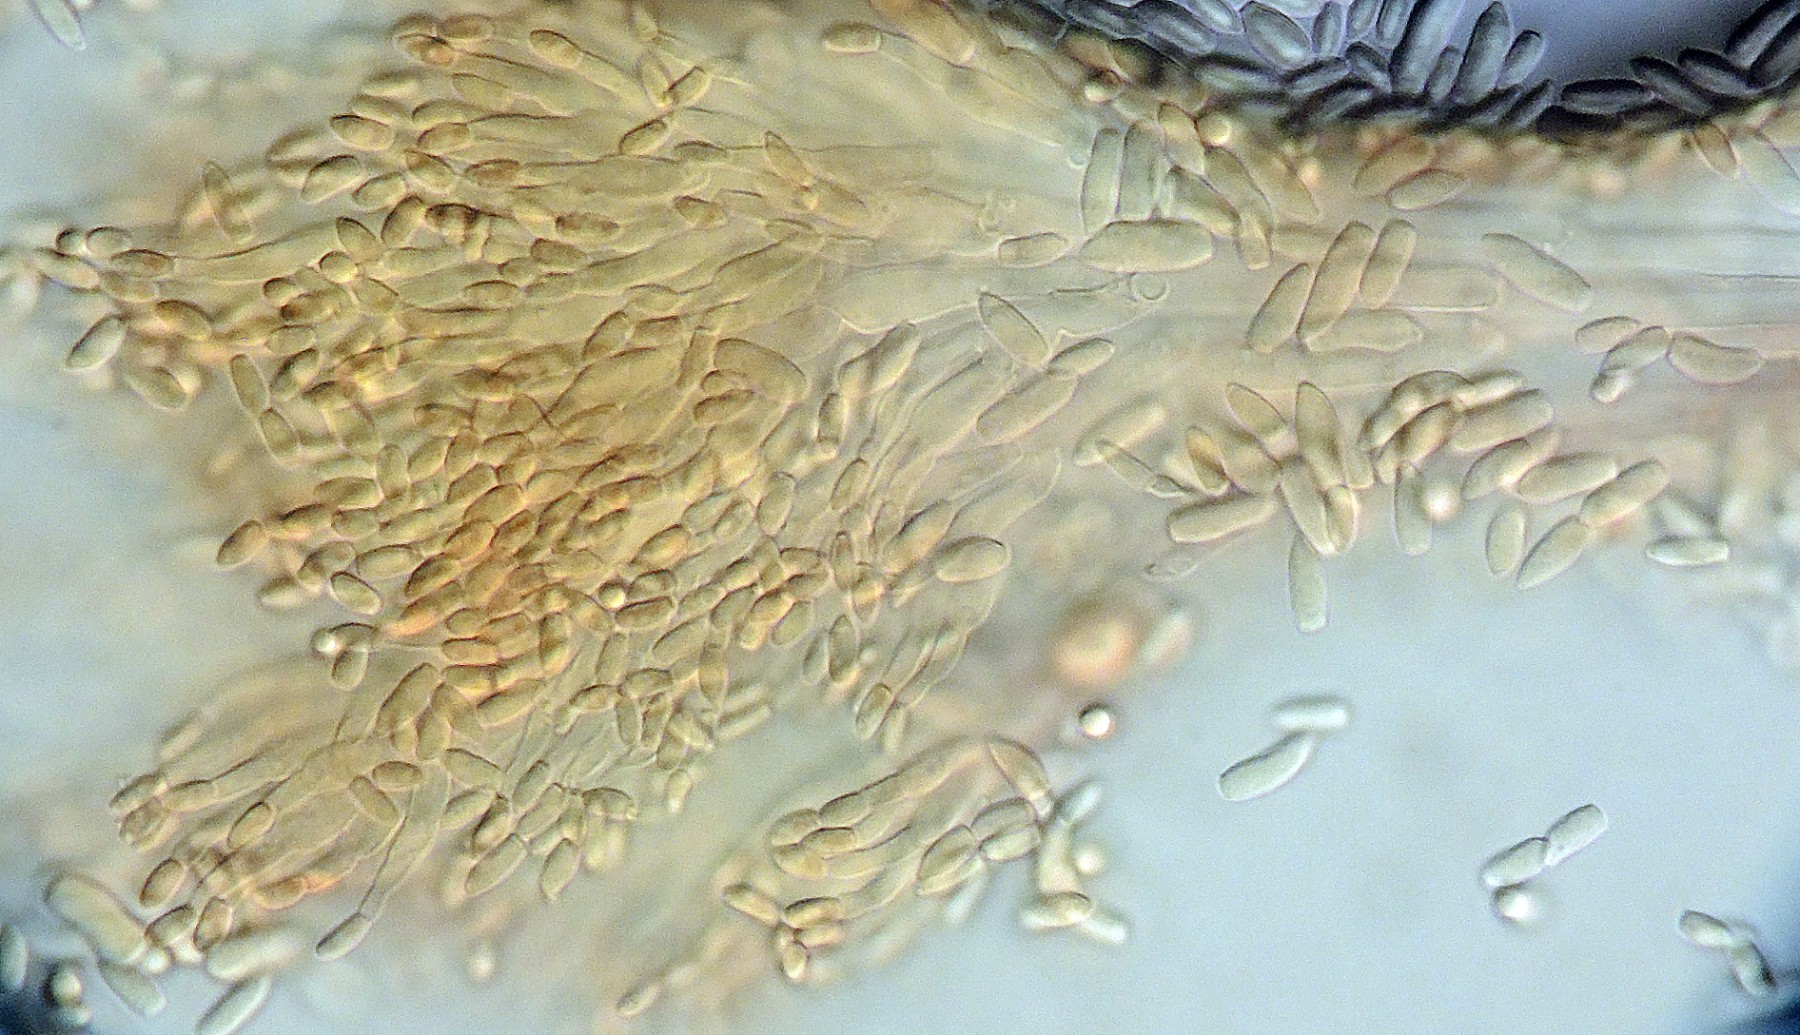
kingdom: Fungi
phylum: Ascomycota
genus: Sphaeridium
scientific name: Sphaeridium candidulum
